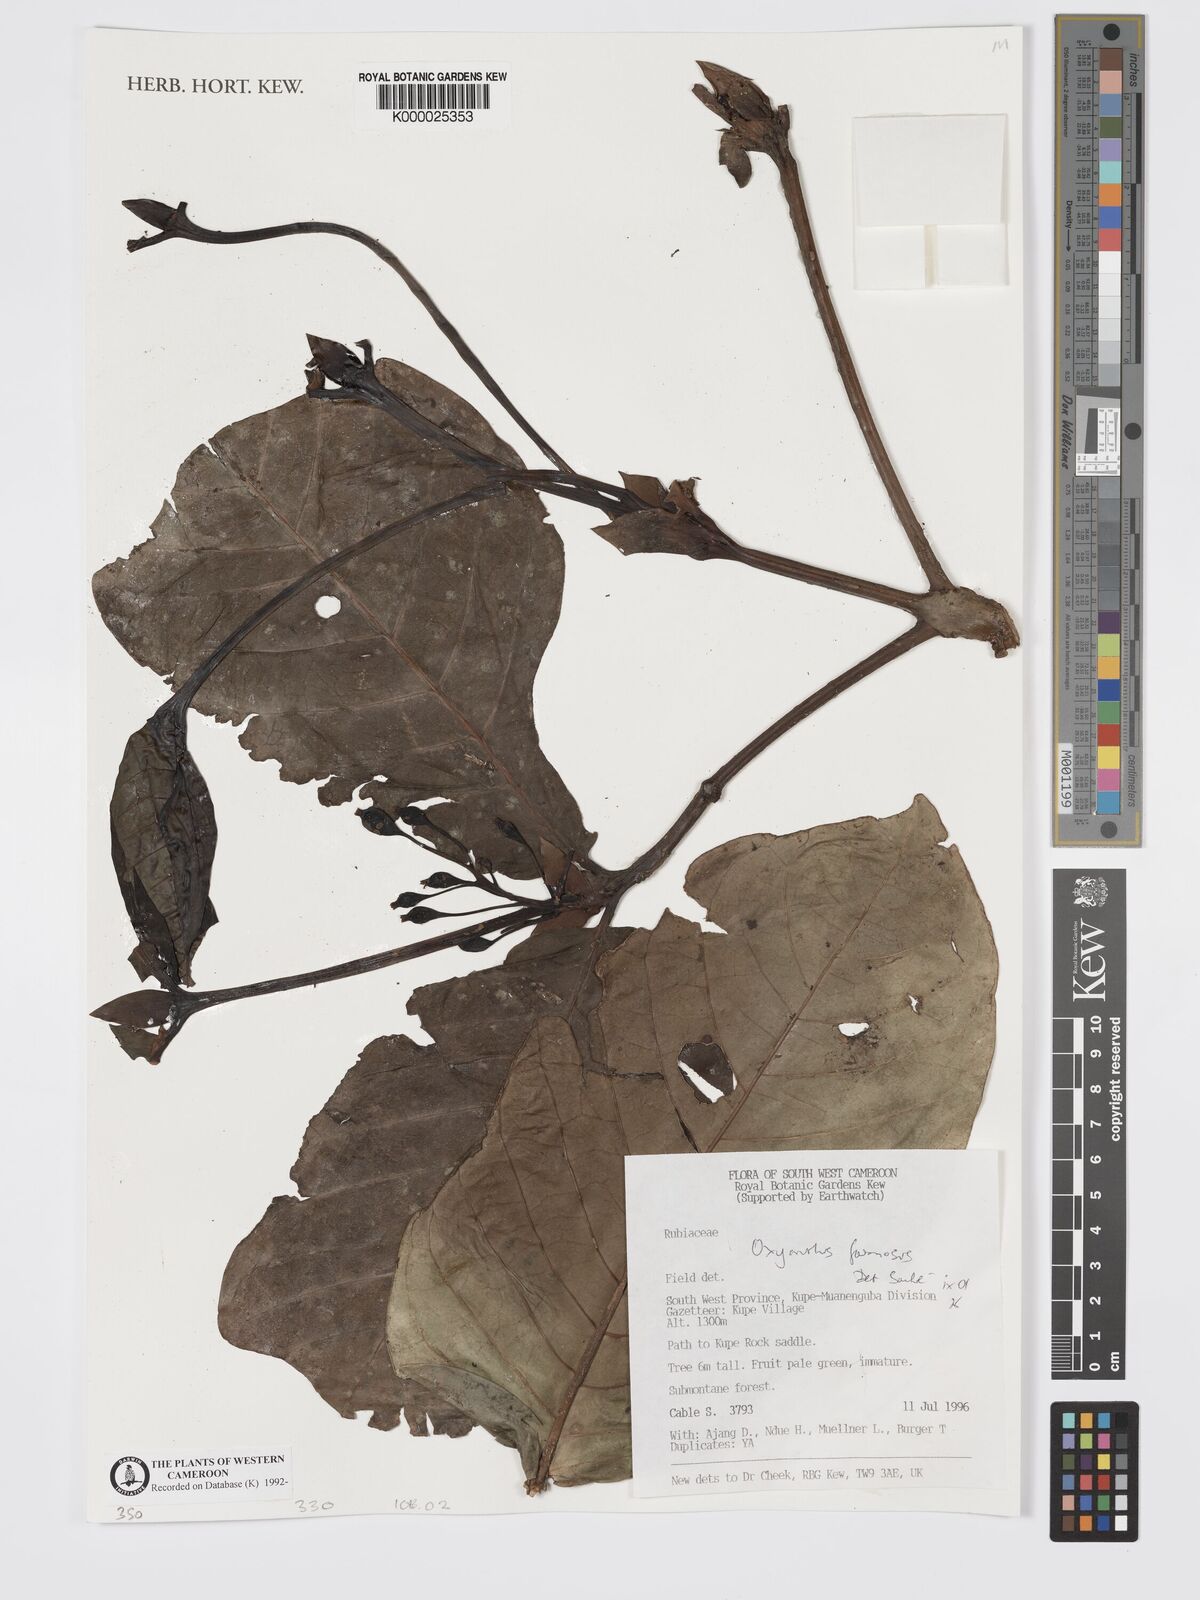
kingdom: Plantae
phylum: Tracheophyta
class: Magnoliopsida
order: Gentianales
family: Rubiaceae
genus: Oxyanthus
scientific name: Oxyanthus
